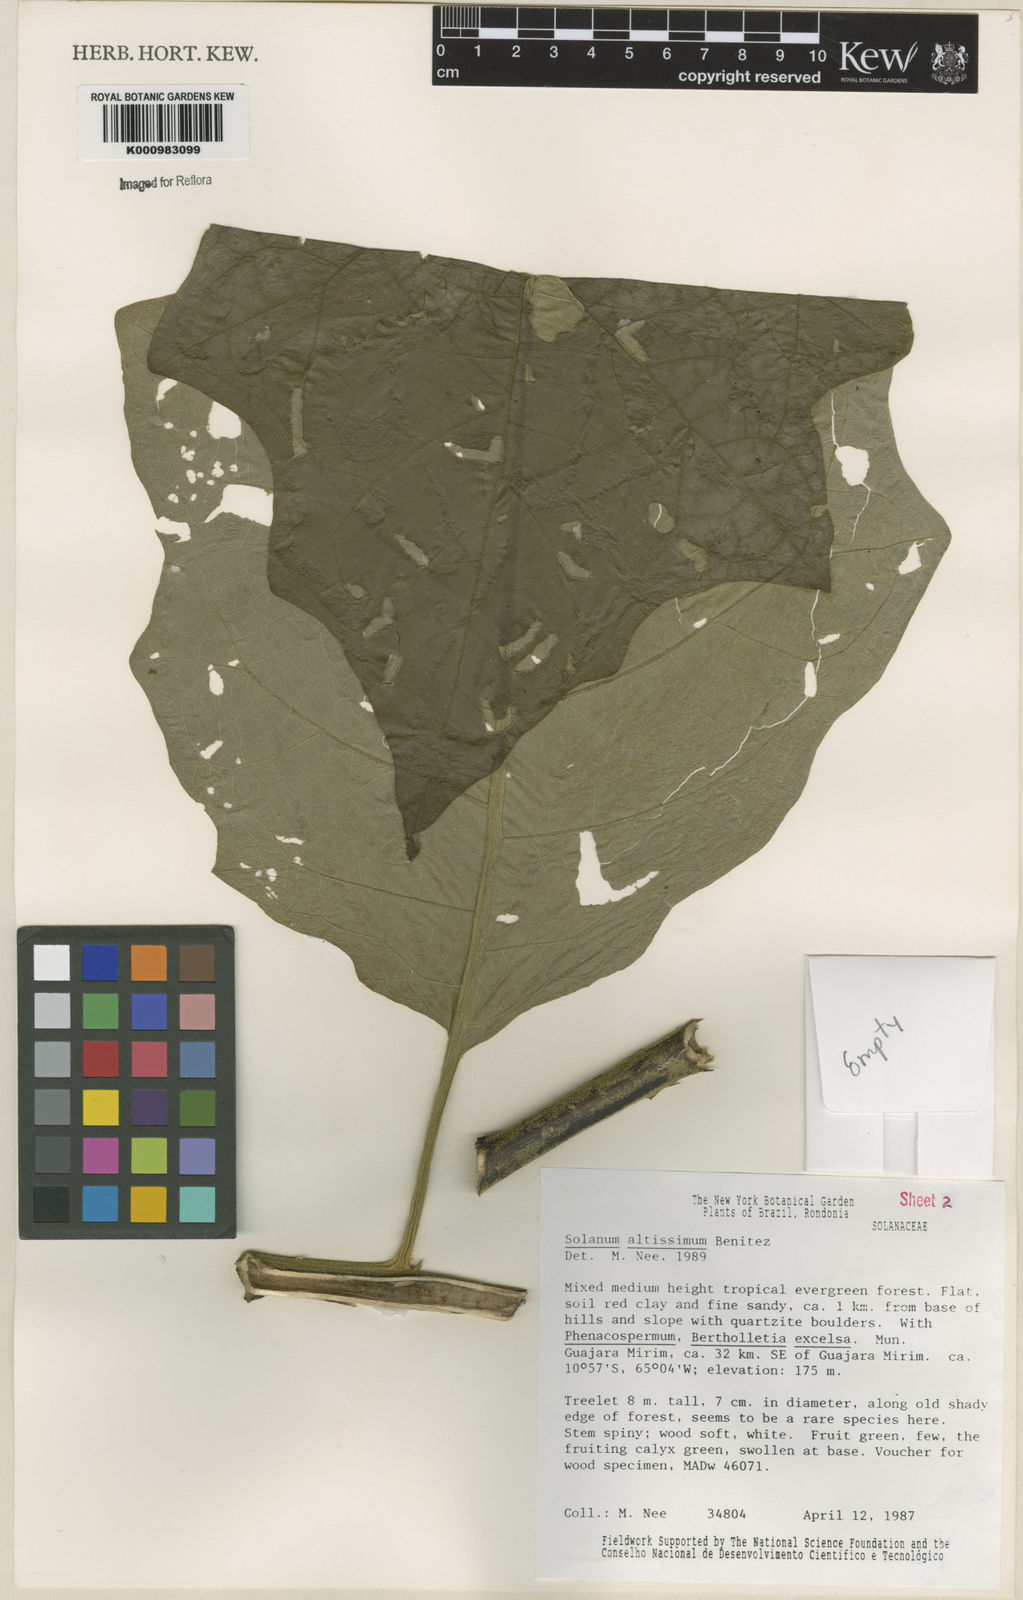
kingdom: Plantae
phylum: Tracheophyta
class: Magnoliopsida
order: Solanales
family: Solanaceae
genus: Solanum
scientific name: Solanum kioniotrichum
